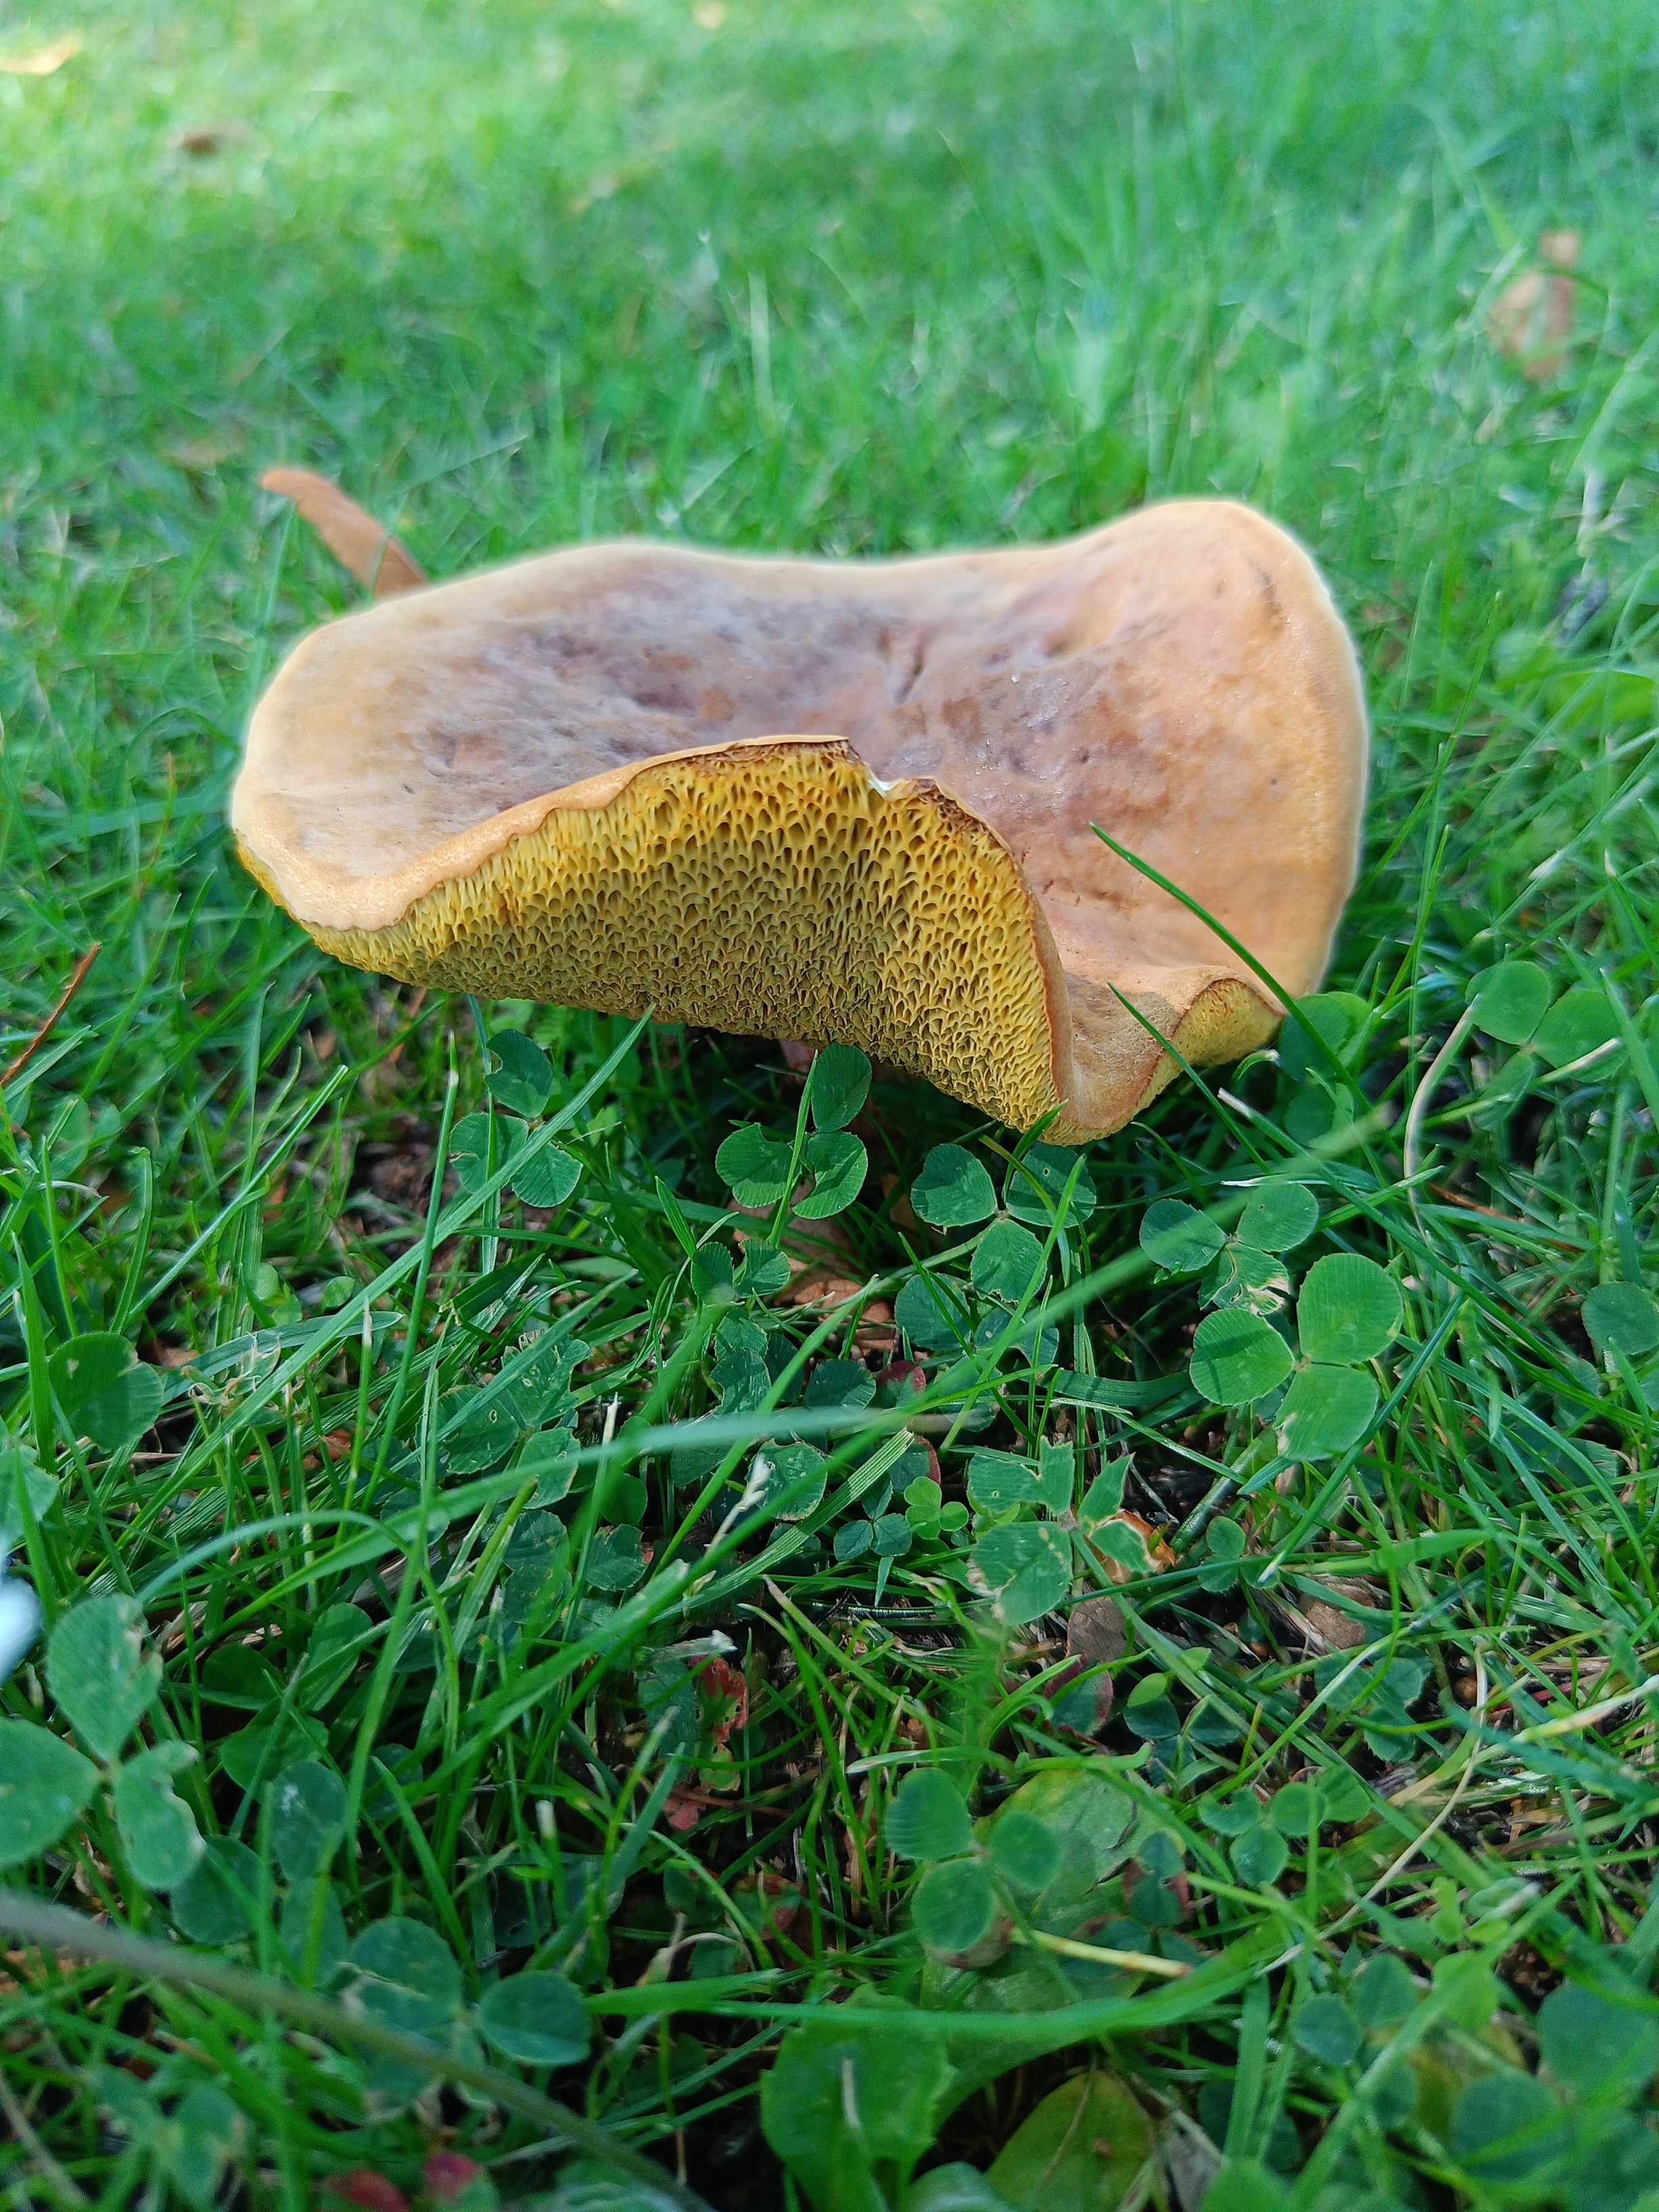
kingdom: Fungi
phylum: Basidiomycota
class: Agaricomycetes
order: Boletales
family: Boletaceae
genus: Hortiboletus
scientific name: Hortiboletus
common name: dværgrørhat
